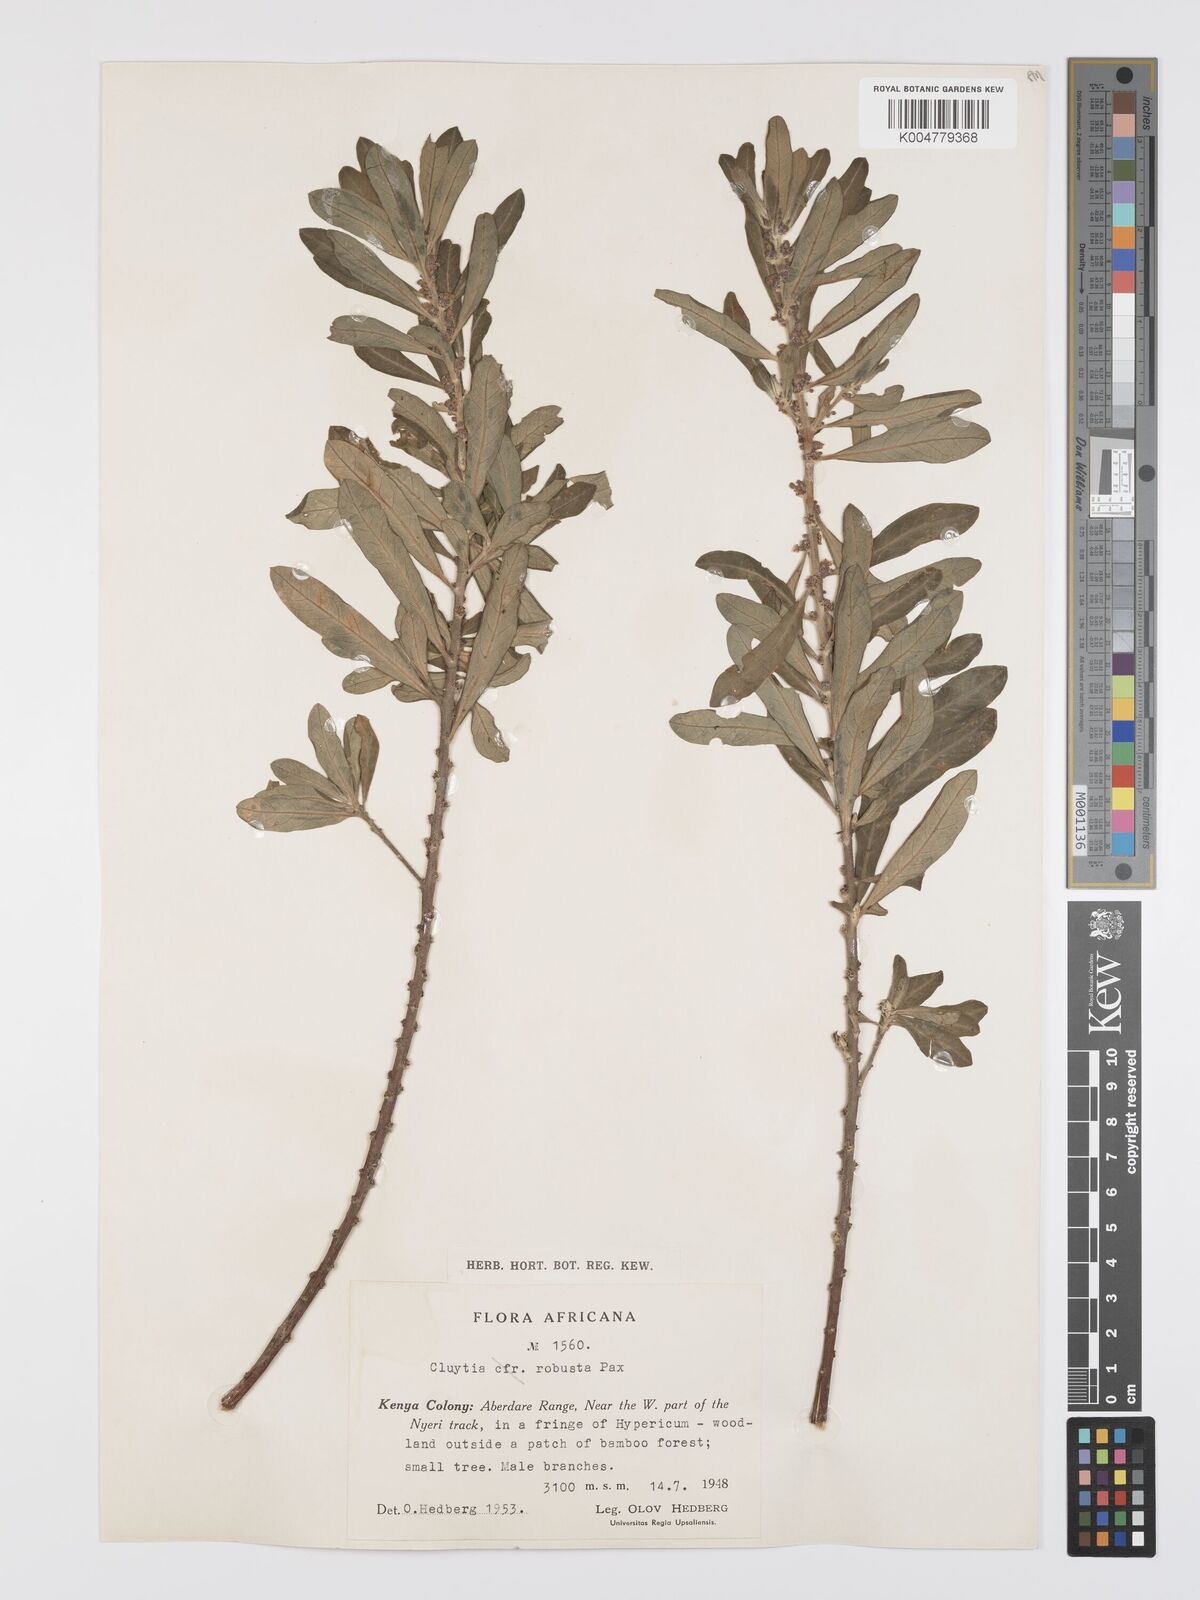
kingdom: Plantae
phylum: Tracheophyta
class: Magnoliopsida
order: Malpighiales
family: Peraceae
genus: Clutia
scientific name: Clutia kilimandscharica
